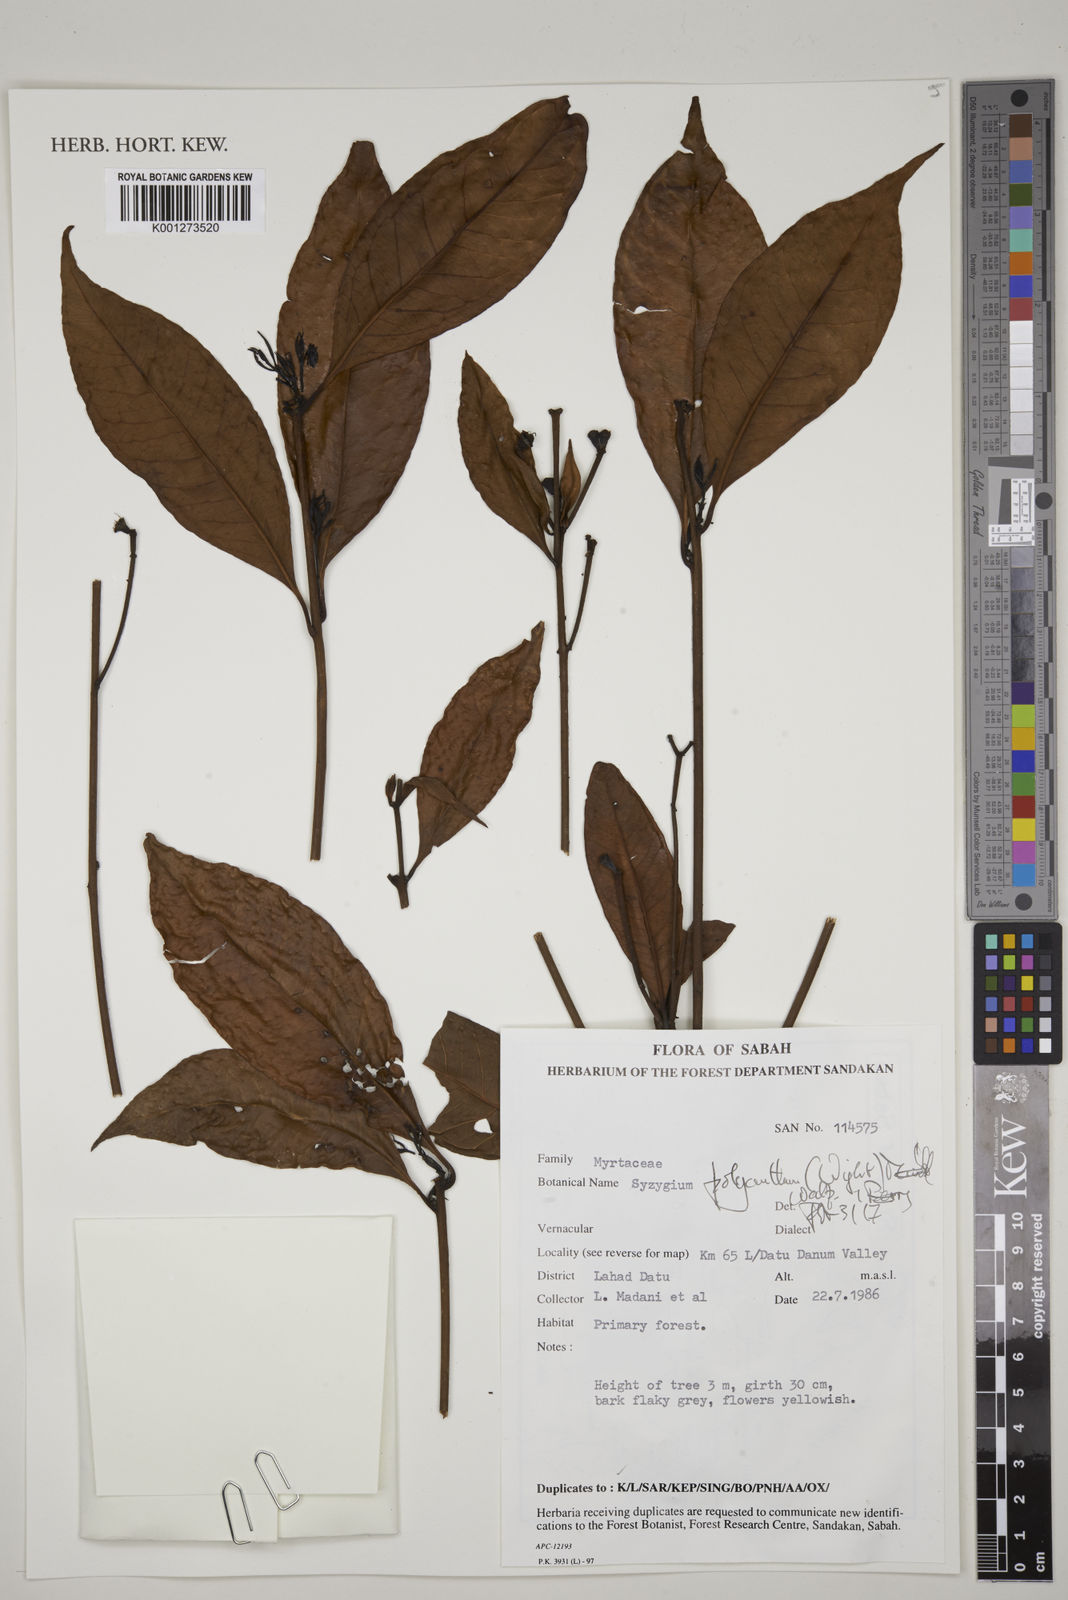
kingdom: Plantae
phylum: Tracheophyta
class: Magnoliopsida
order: Myrtales
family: Myrtaceae
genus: Syzygium
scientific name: Syzygium
